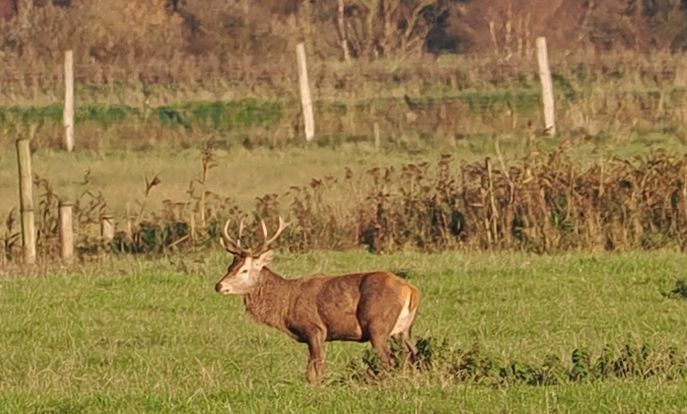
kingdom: Animalia
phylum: Chordata
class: Mammalia
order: Artiodactyla
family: Cervidae
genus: Cervus
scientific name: Cervus elaphus
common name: Krondyr
